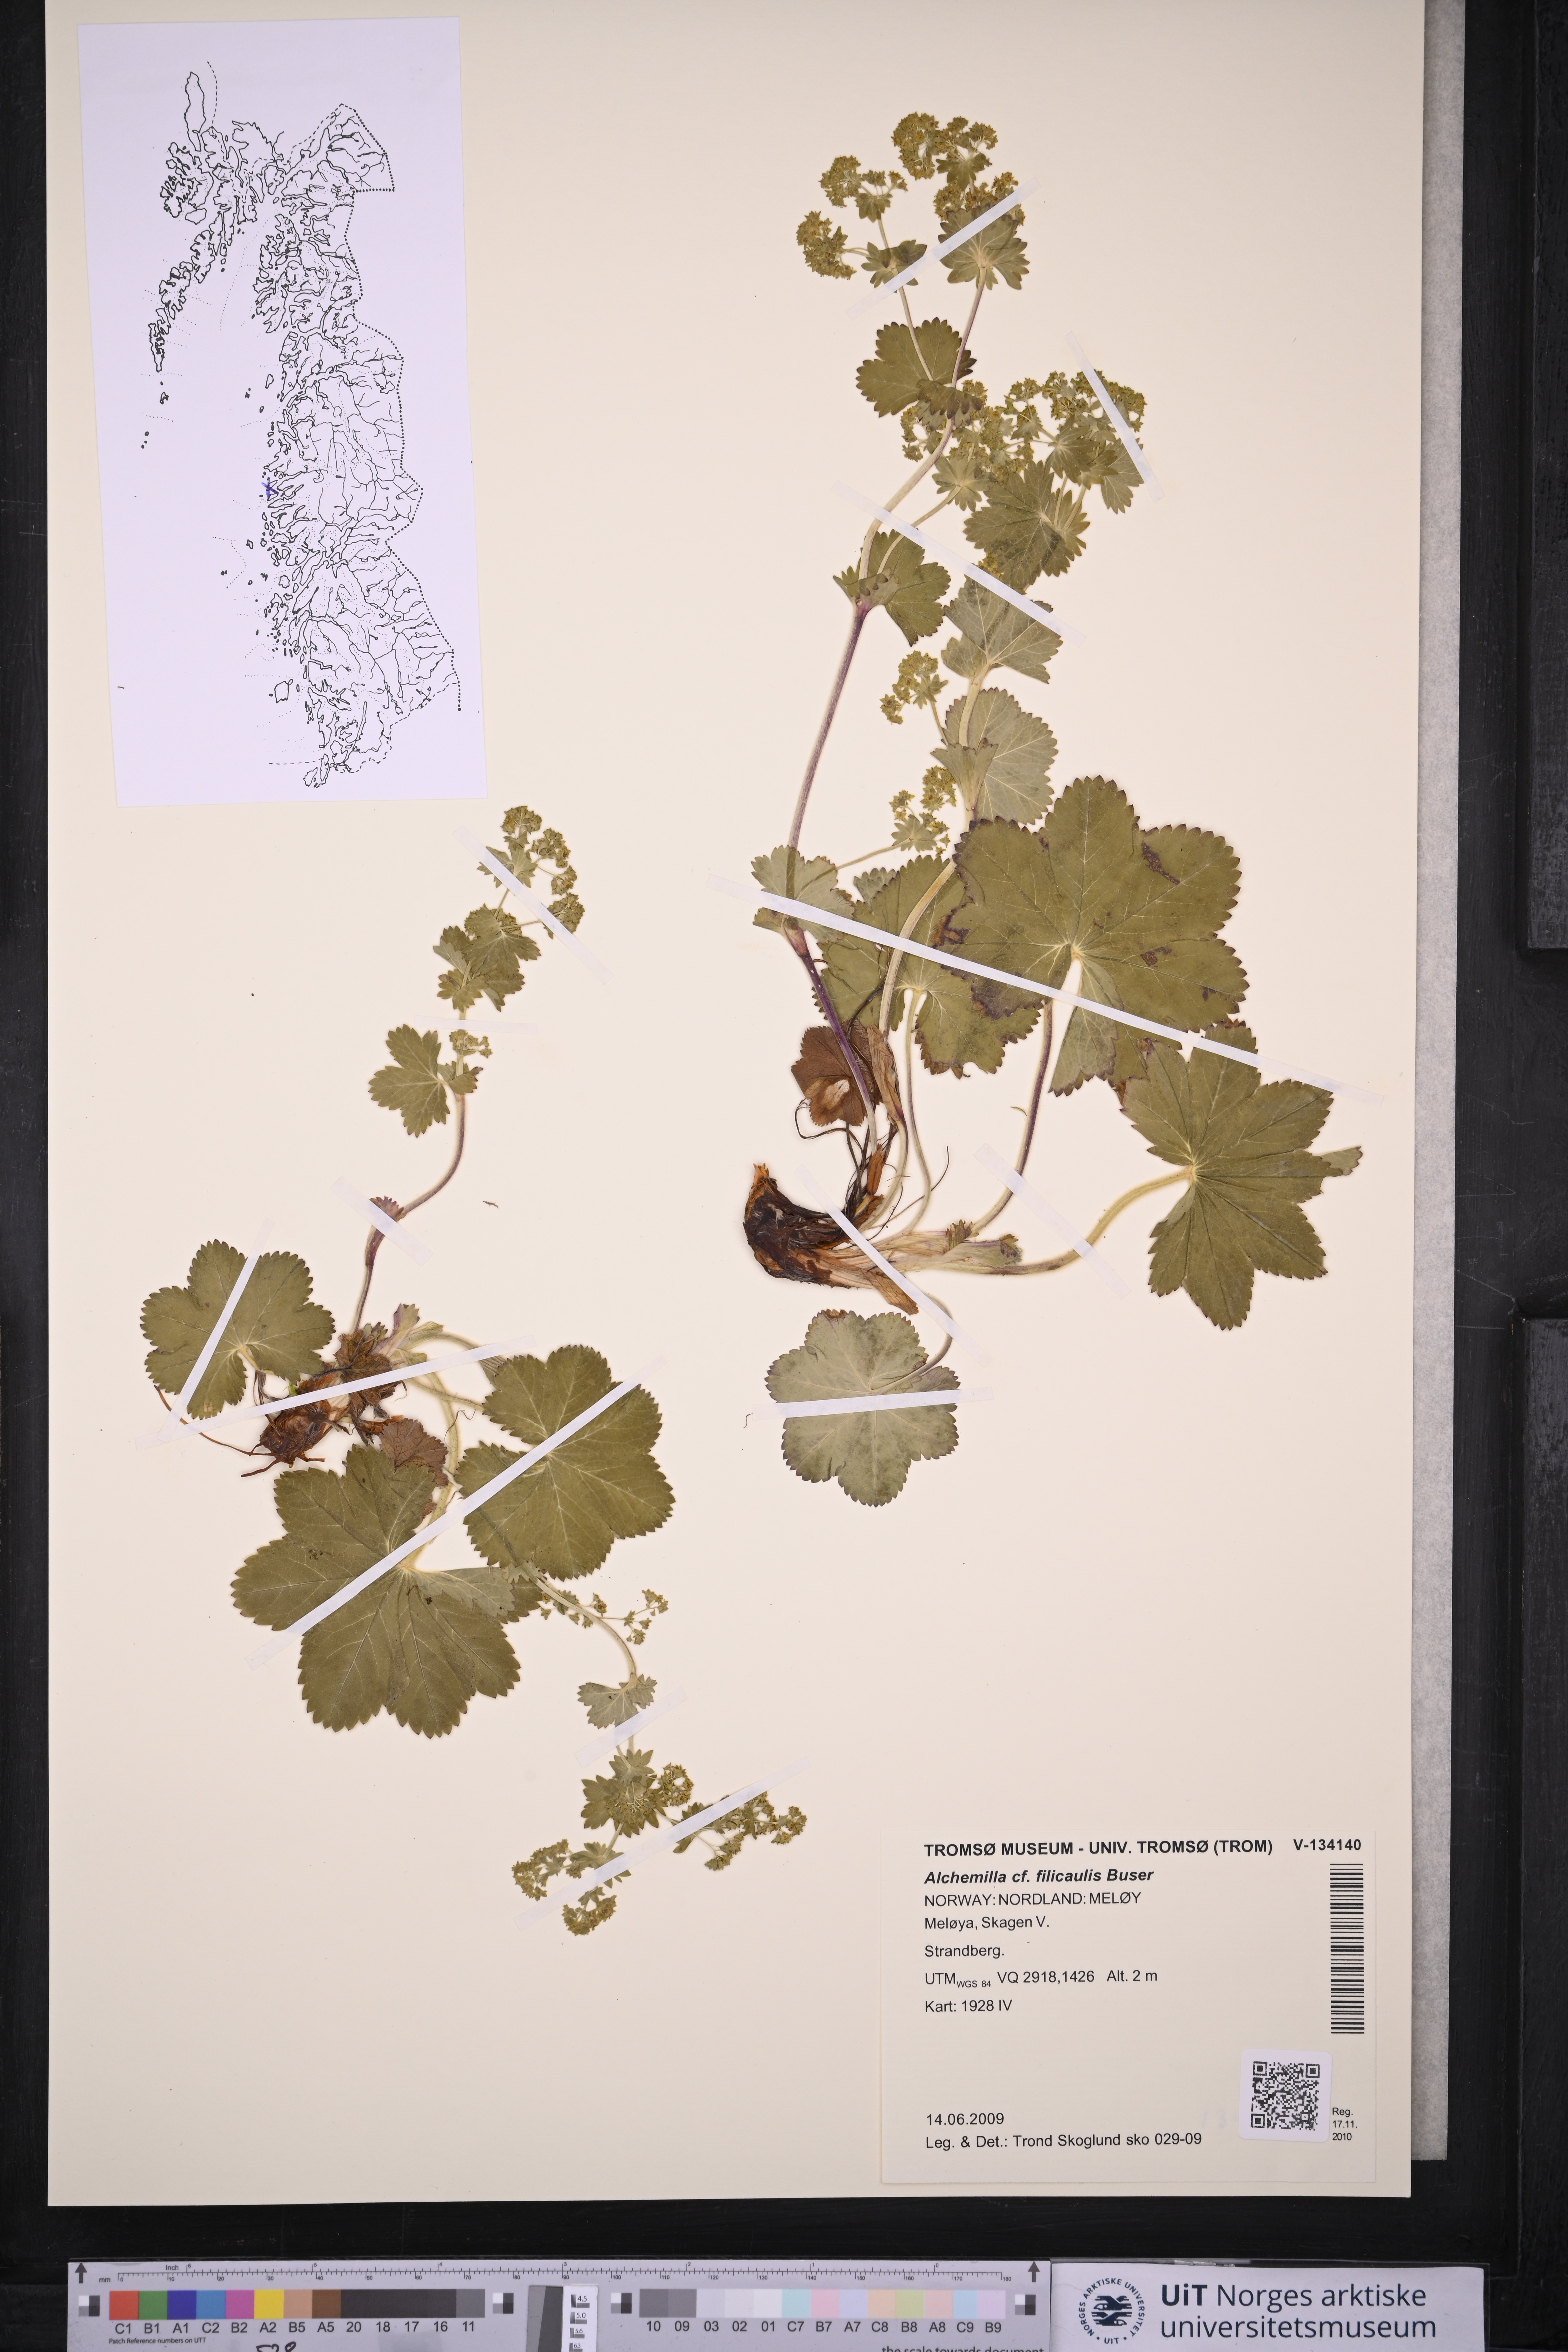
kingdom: Plantae
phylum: Tracheophyta
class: Magnoliopsida
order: Rosales
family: Rosaceae
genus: Alchemilla
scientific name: Alchemilla filicaulis
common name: Hairy lady's-mantle
